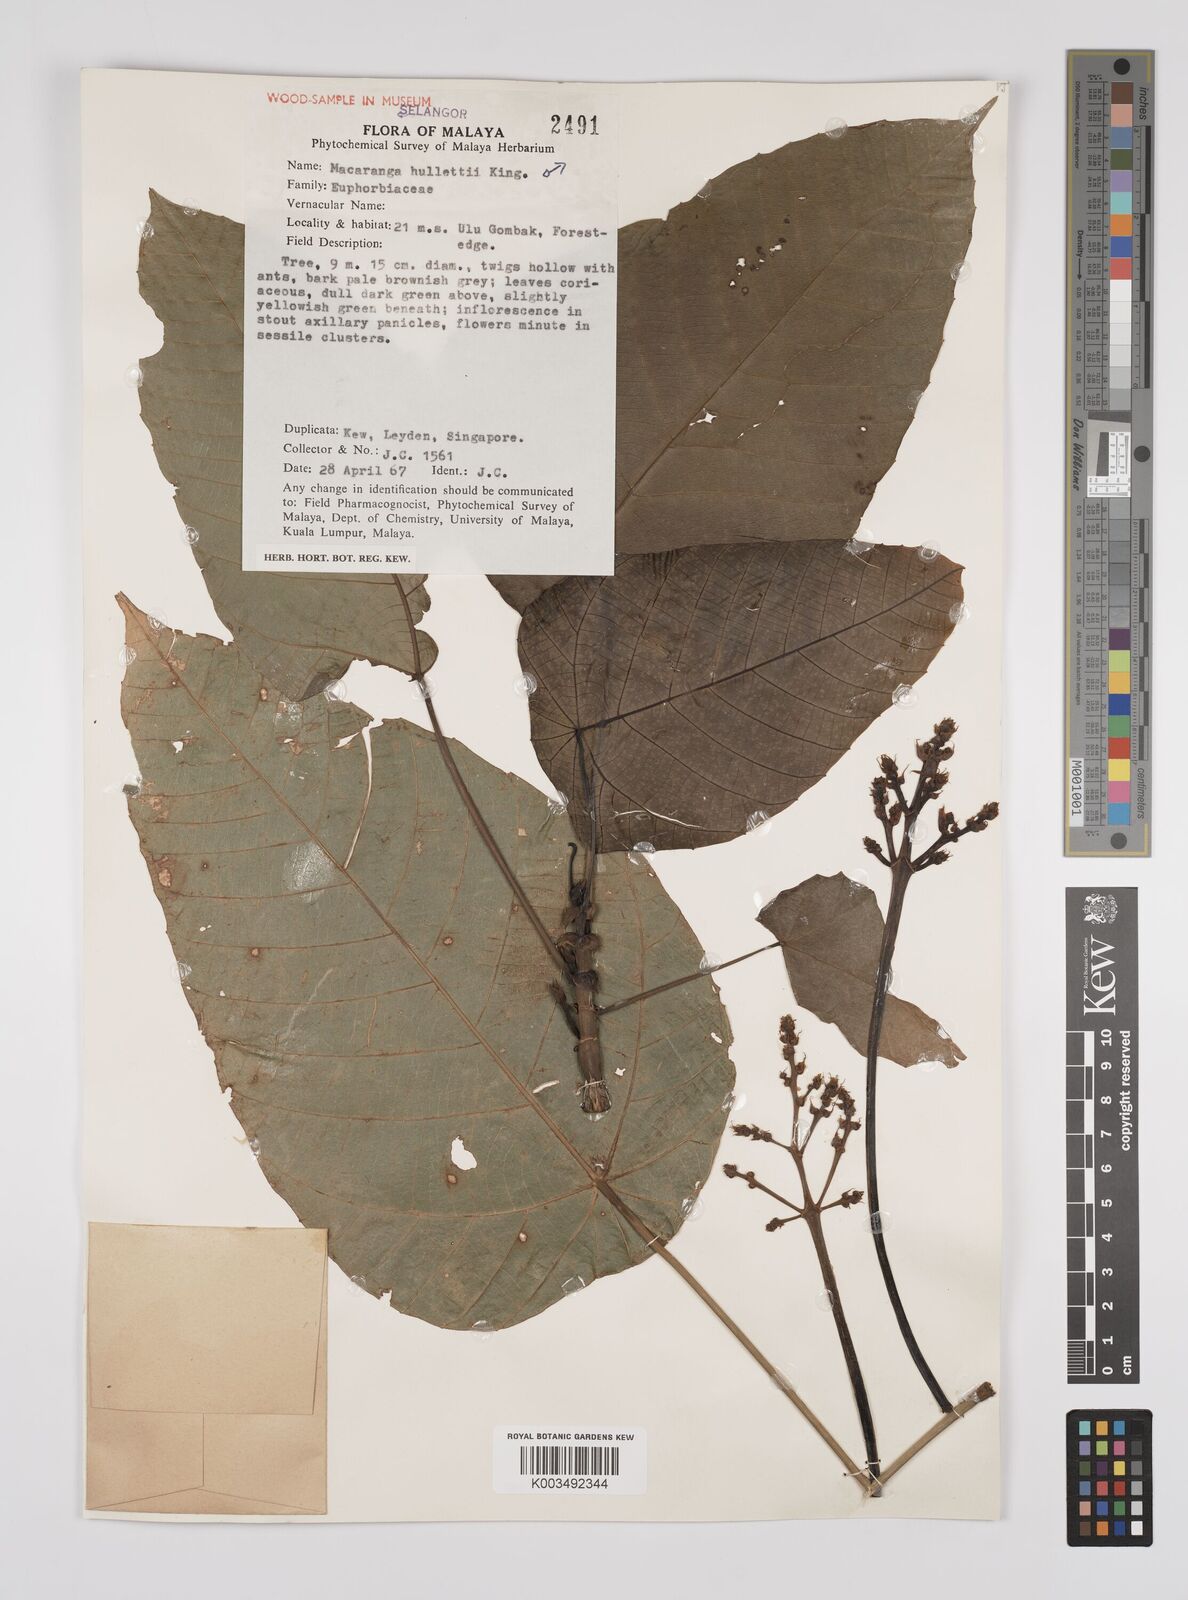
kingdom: Plantae
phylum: Tracheophyta
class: Magnoliopsida
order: Malpighiales
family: Euphorbiaceae
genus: Macaranga
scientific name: Macaranga hullettii
